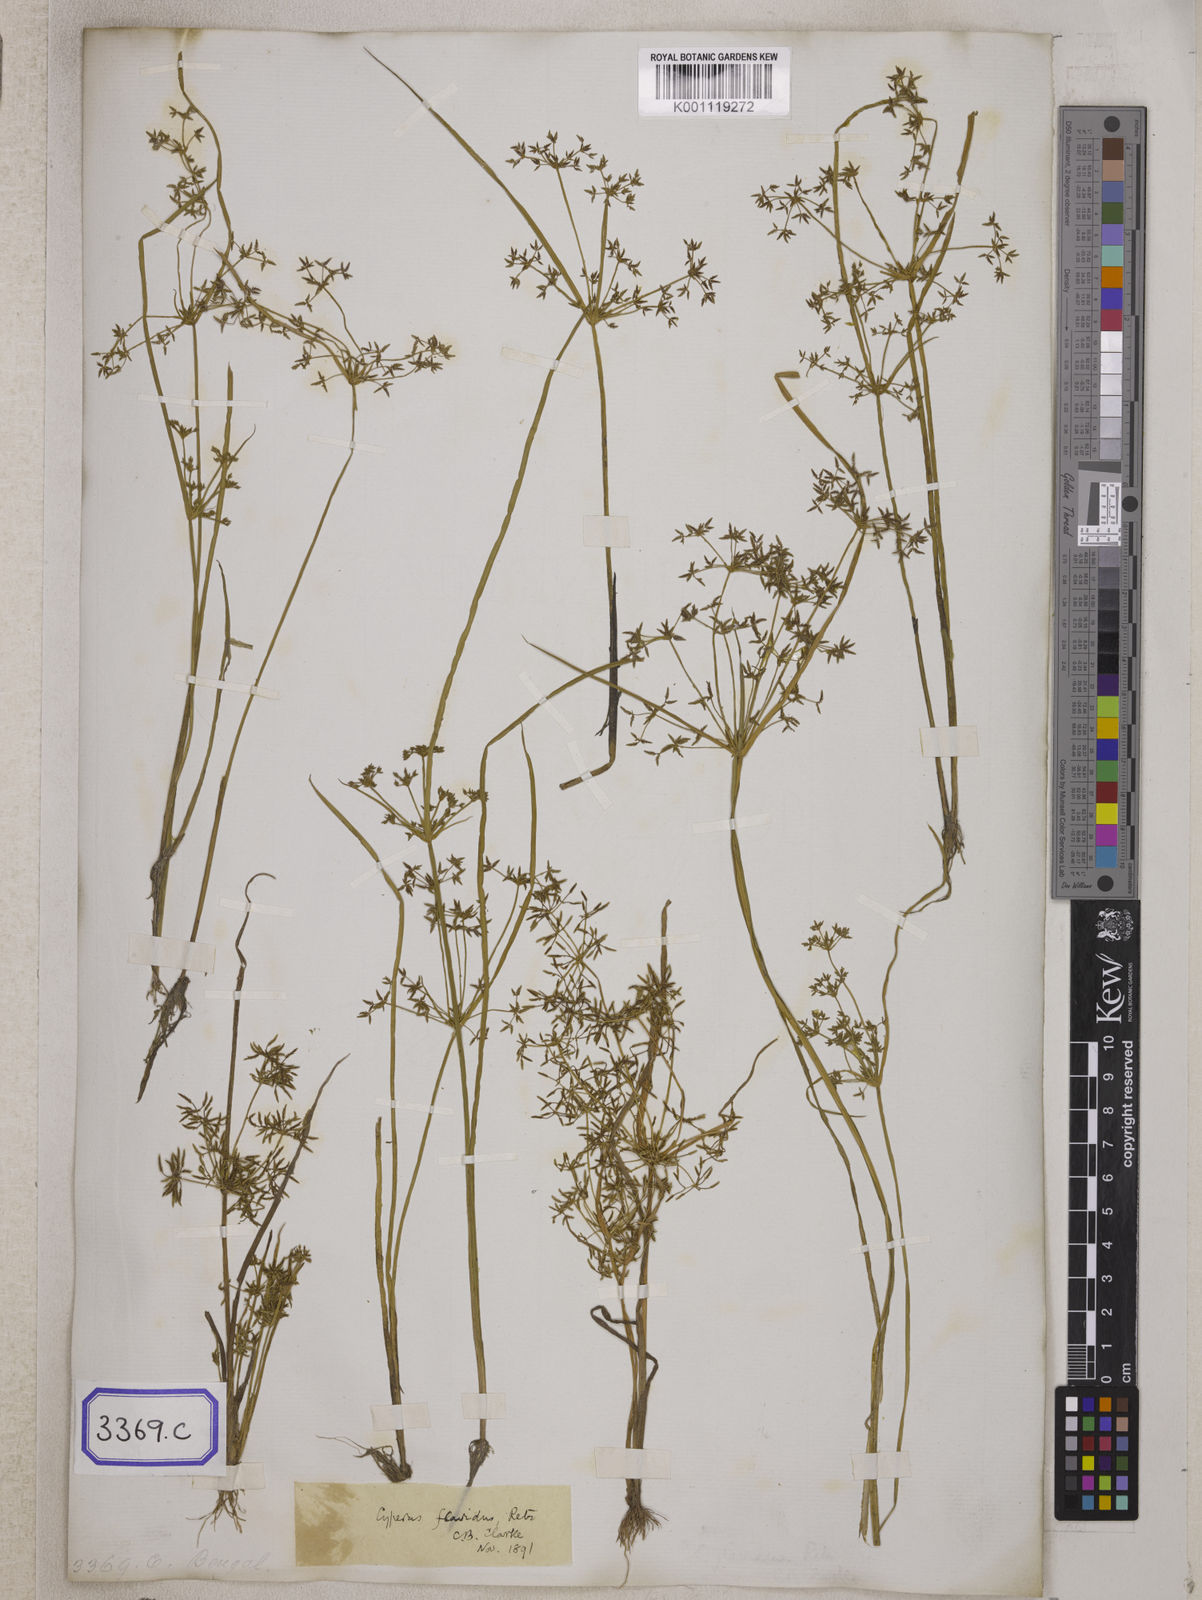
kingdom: Plantae
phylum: Tracheophyta
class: Liliopsida
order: Poales
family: Cyperaceae
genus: Cyperus
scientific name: Cyperus
